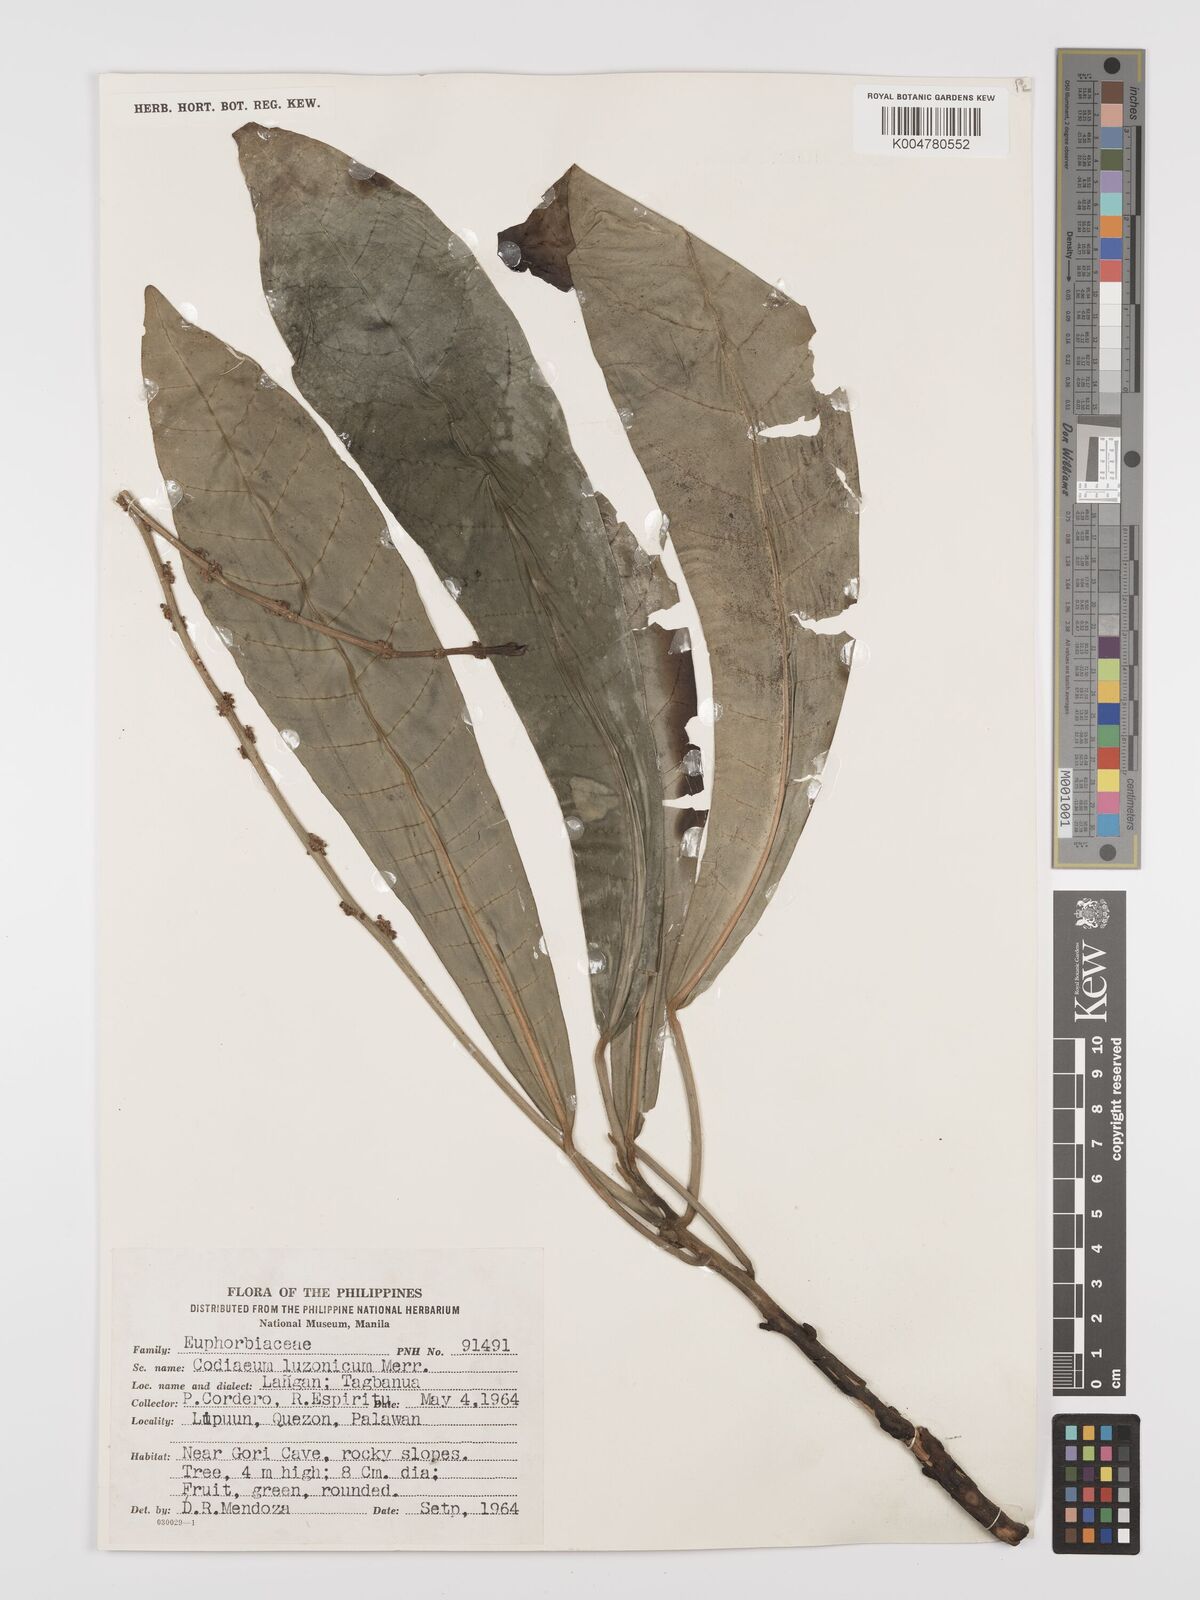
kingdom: Plantae
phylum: Tracheophyta
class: Magnoliopsida
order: Malpighiales
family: Euphorbiaceae
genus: Codiaeum
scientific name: Codiaeum luzonicum
